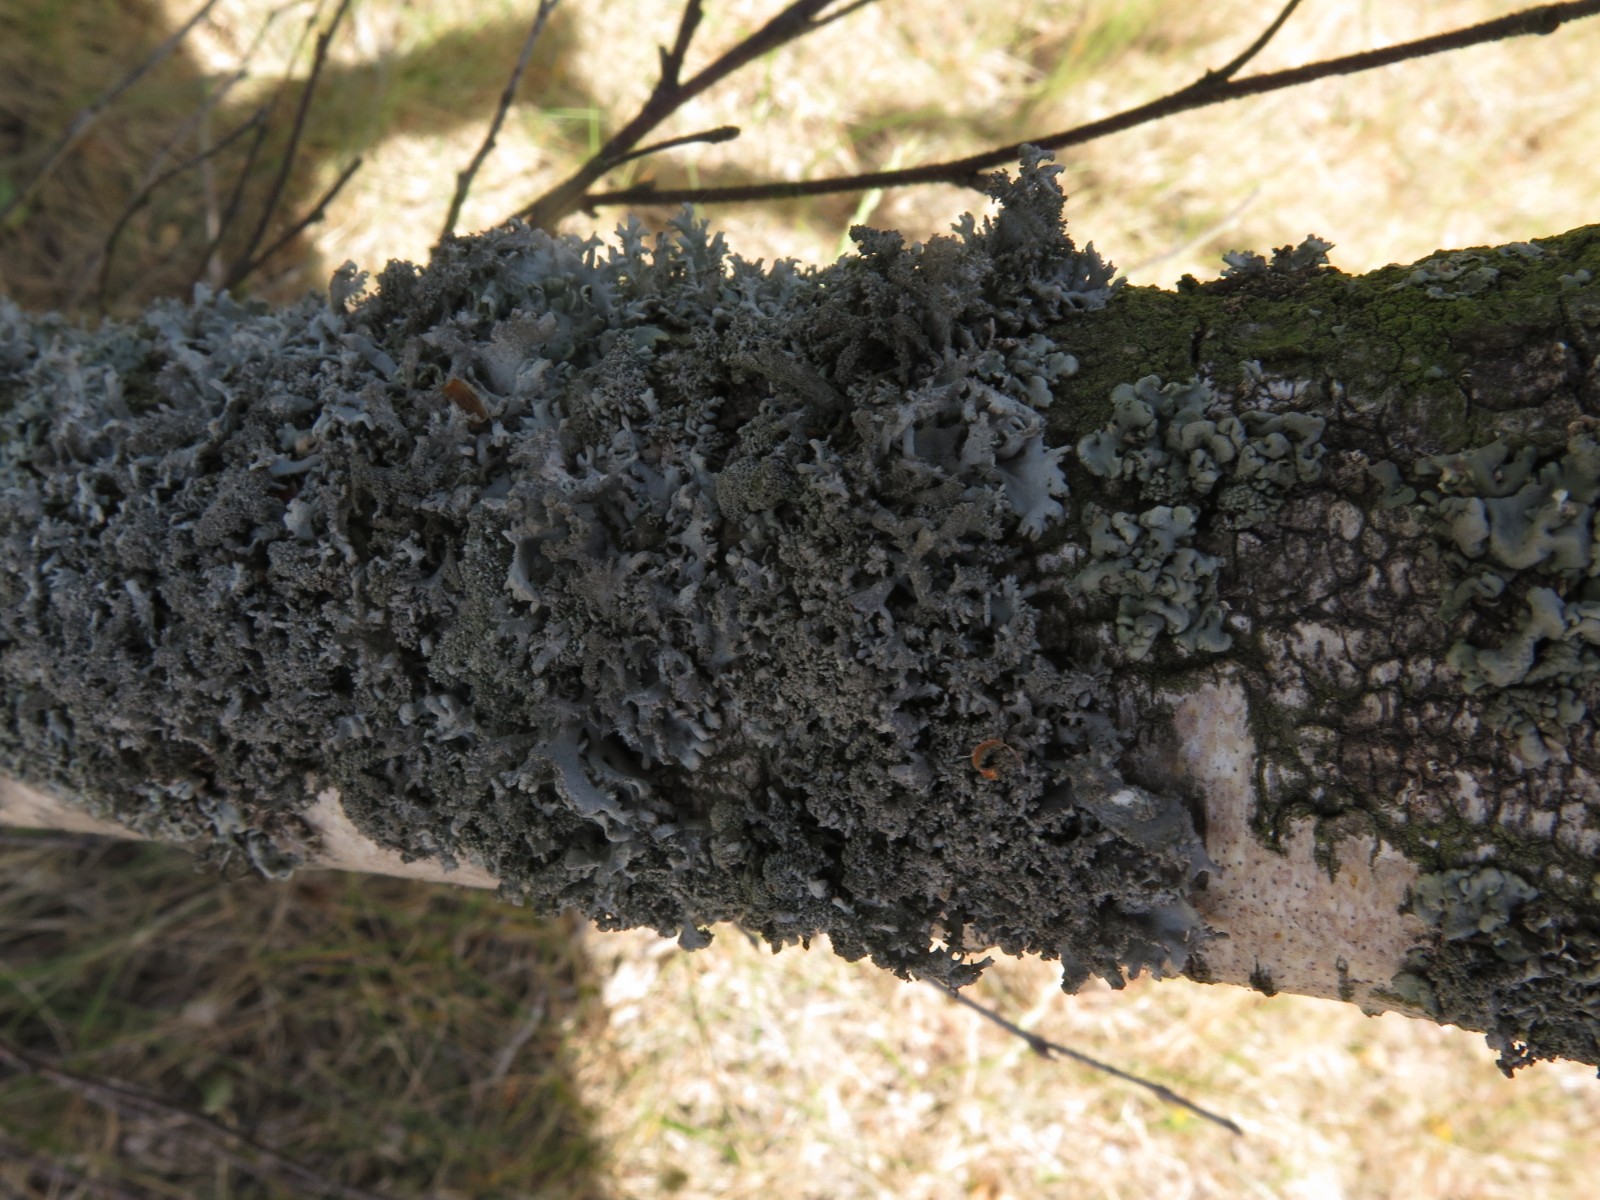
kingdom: Fungi
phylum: Ascomycota
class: Lecanoromycetes
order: Lecanorales
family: Parmeliaceae
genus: Pseudevernia
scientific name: Pseudevernia furfuracea
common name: grå fyrrelav
